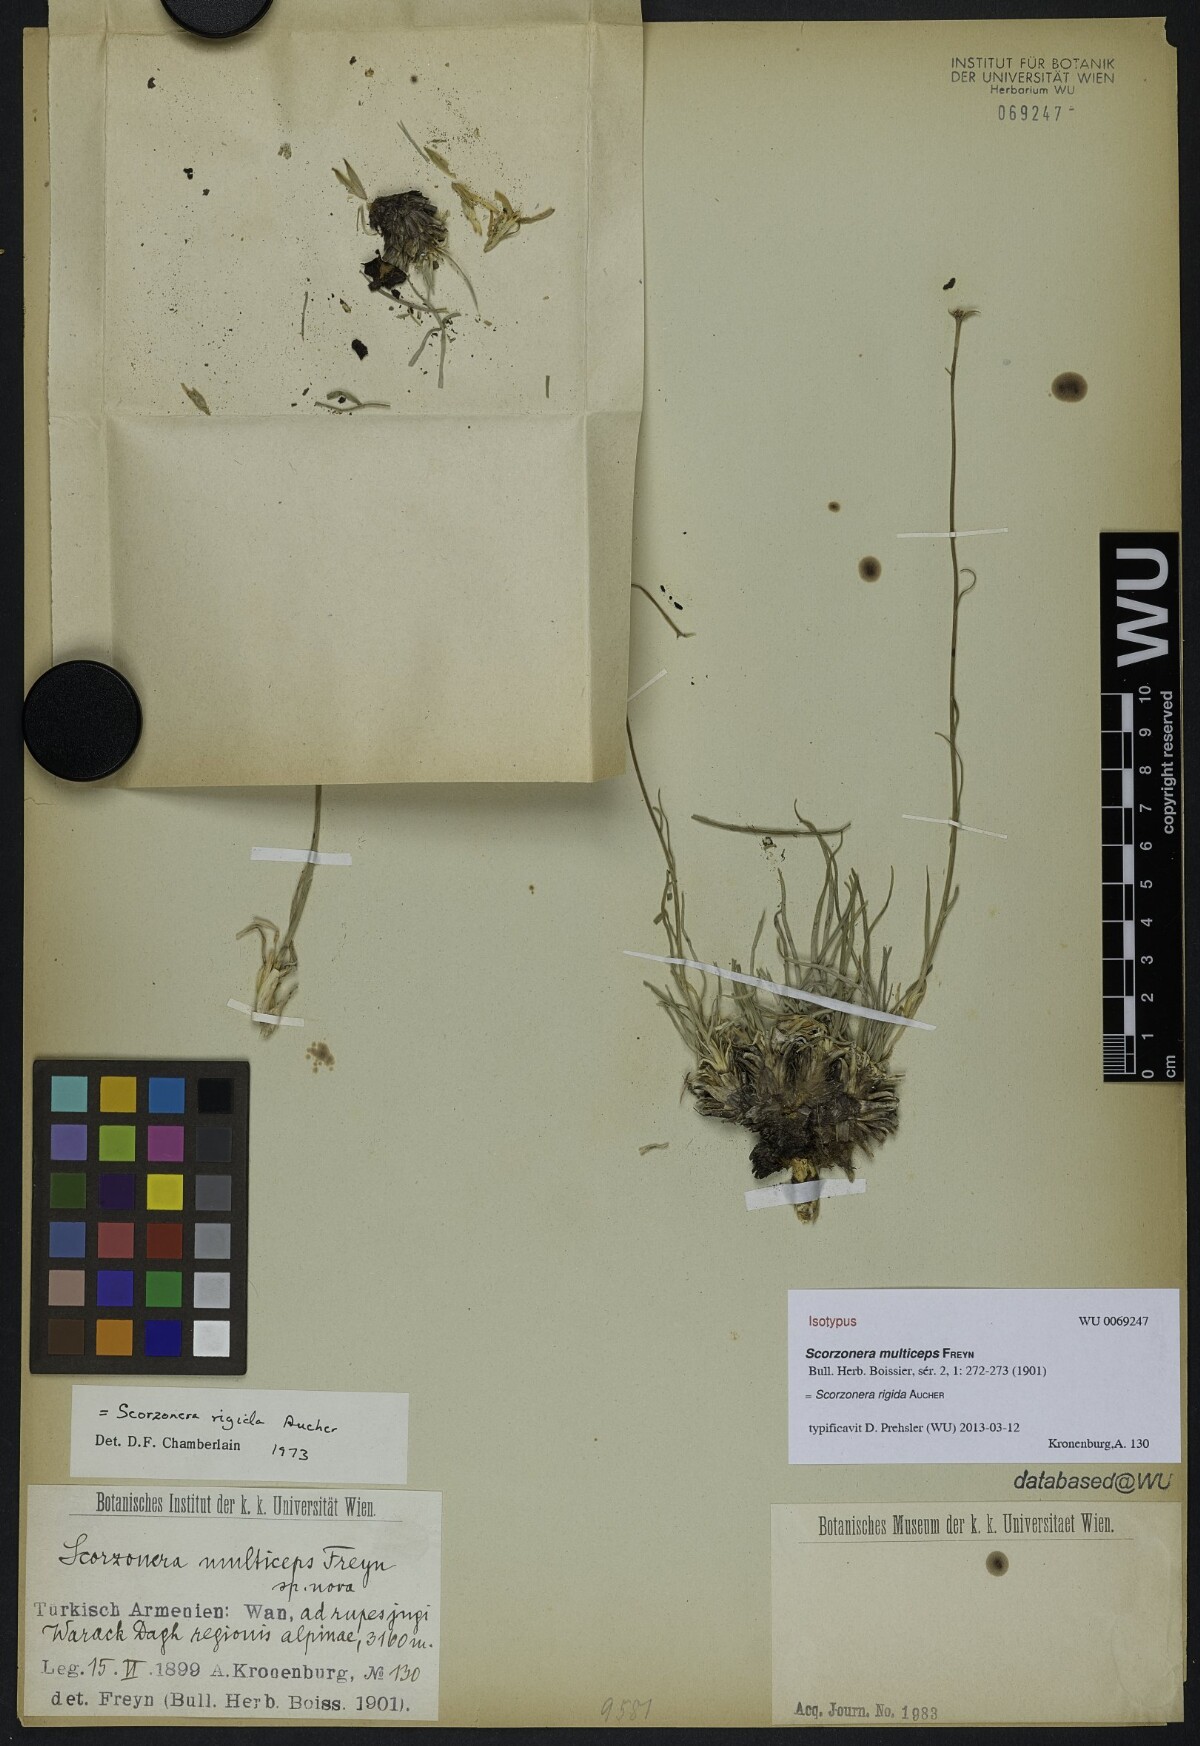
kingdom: Plantae
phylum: Tracheophyta
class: Magnoliopsida
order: Asterales
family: Asteraceae
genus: Goekyighitia
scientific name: Goekyighitia rigida
